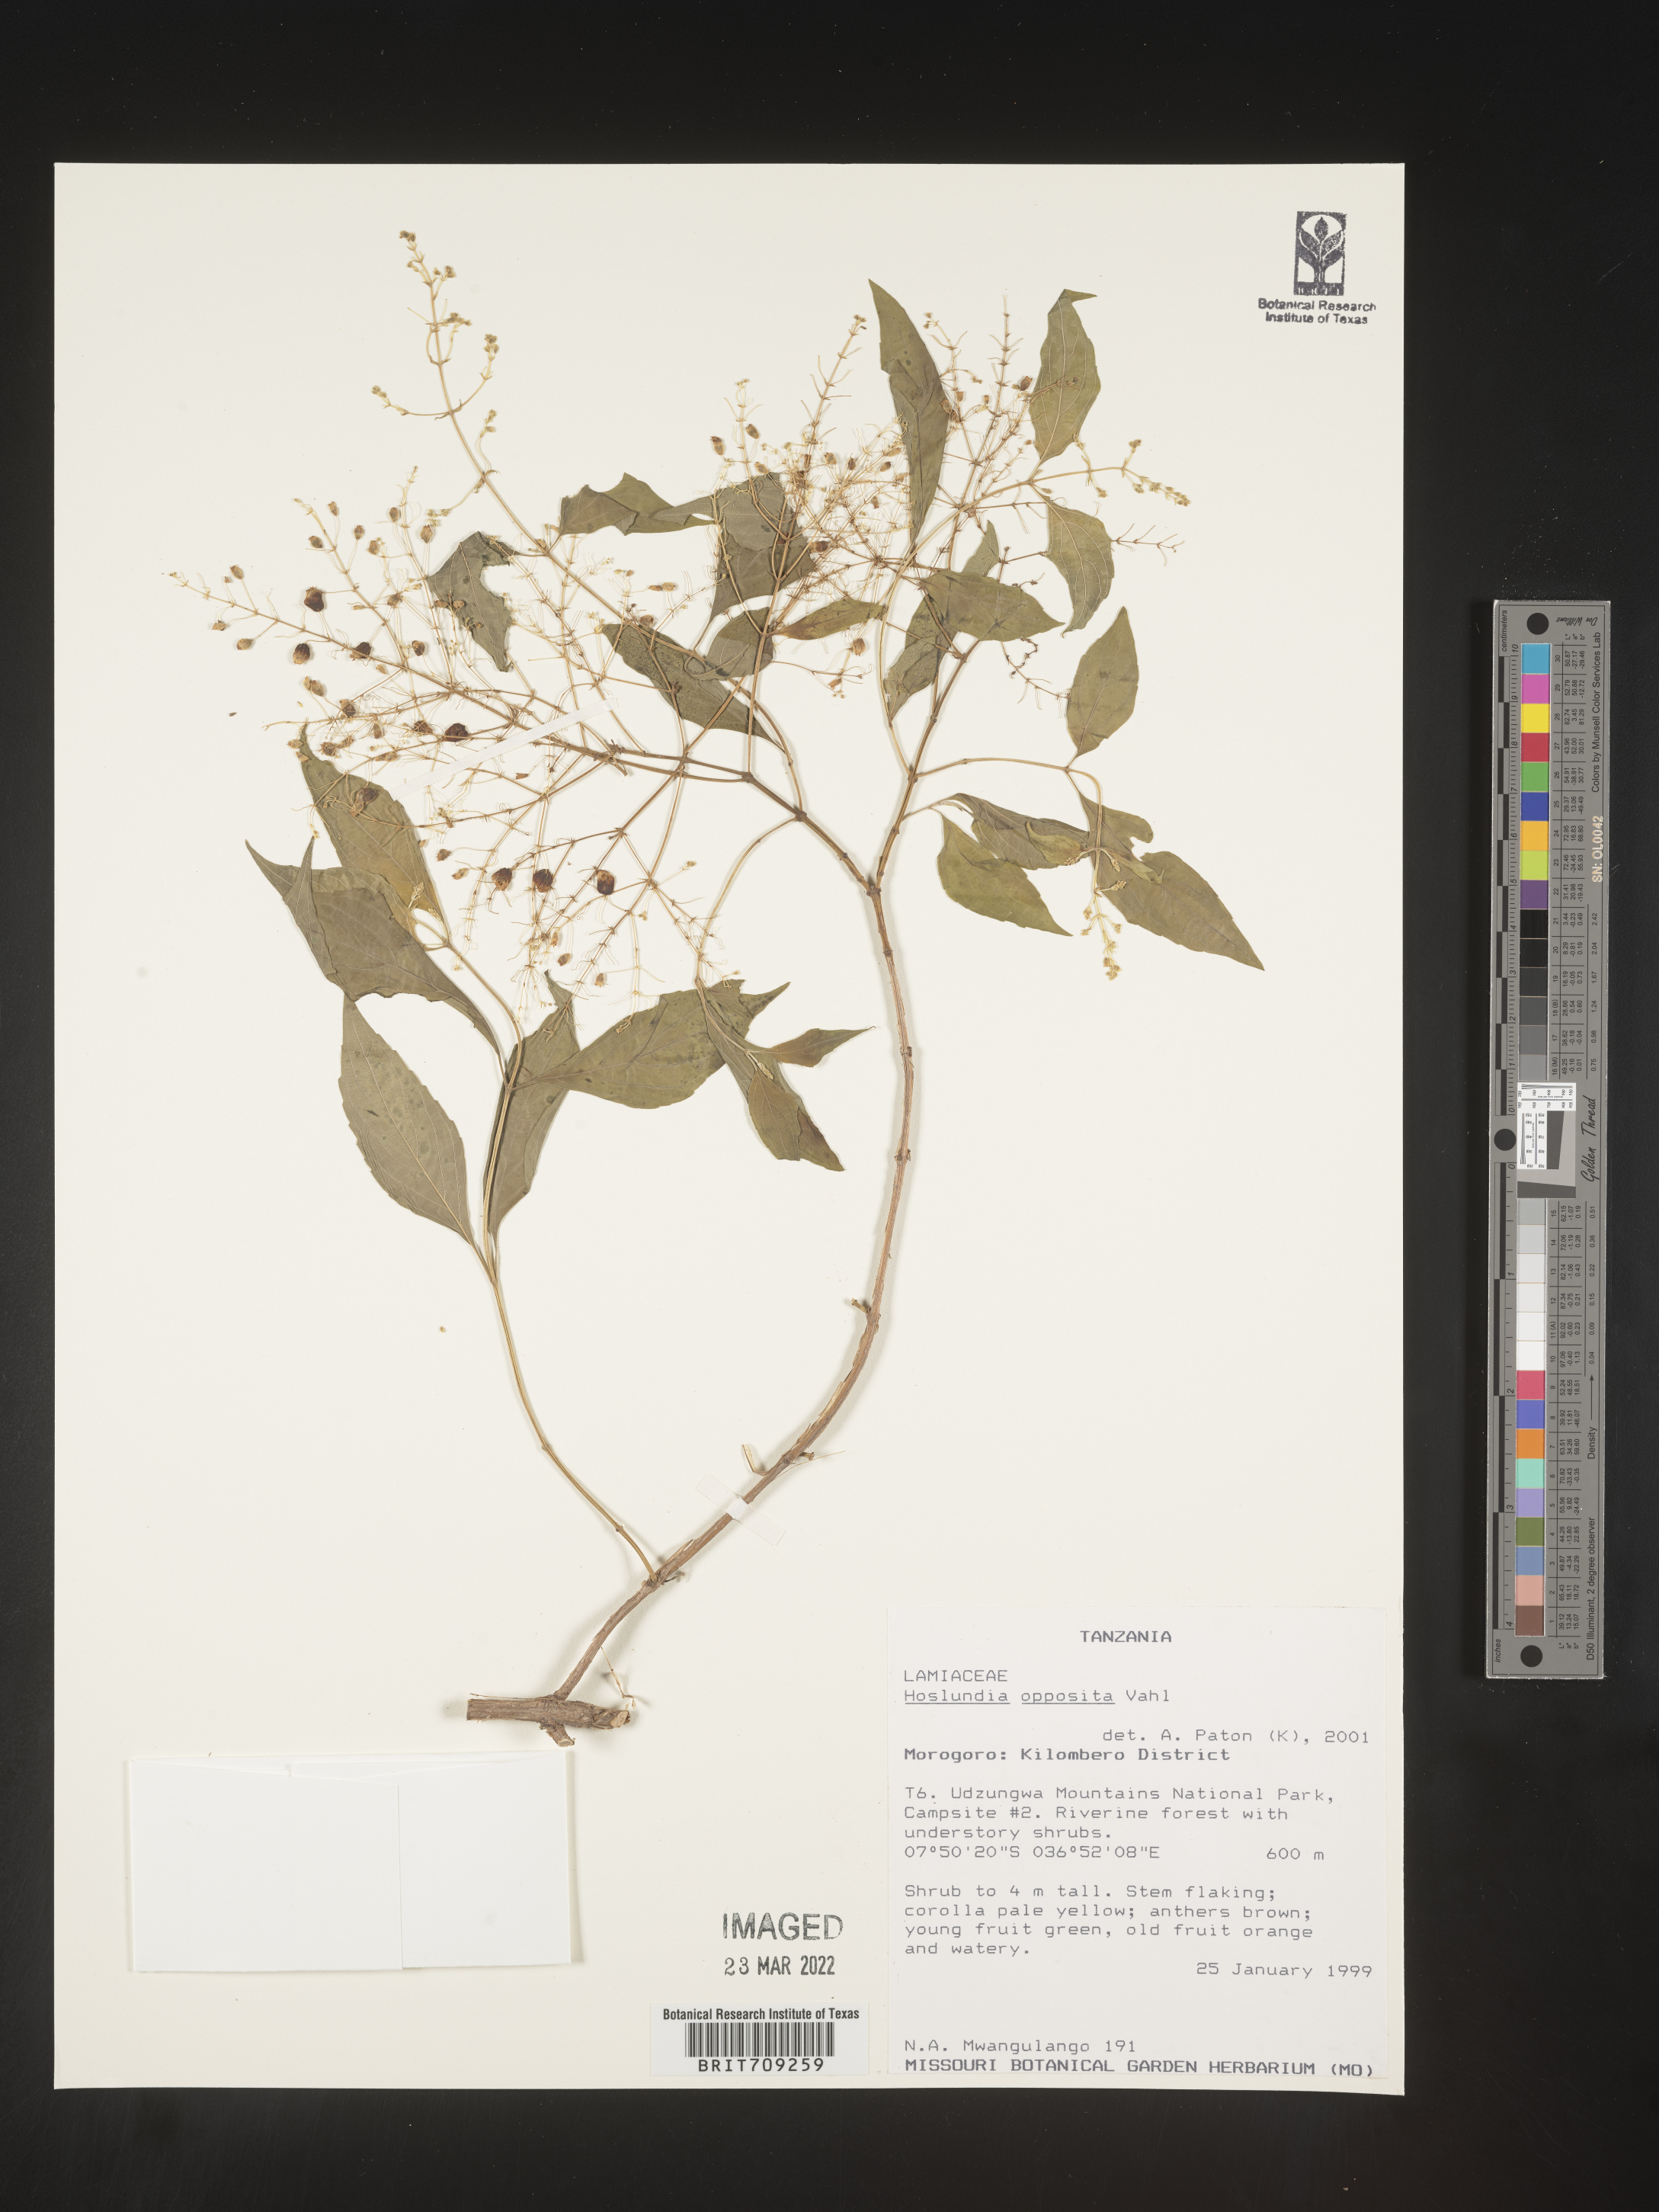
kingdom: Plantae
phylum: Tracheophyta
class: Magnoliopsida
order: Lamiales
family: Lamiaceae
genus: Hoslundia
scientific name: Hoslundia opposita
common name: Kamyuye
